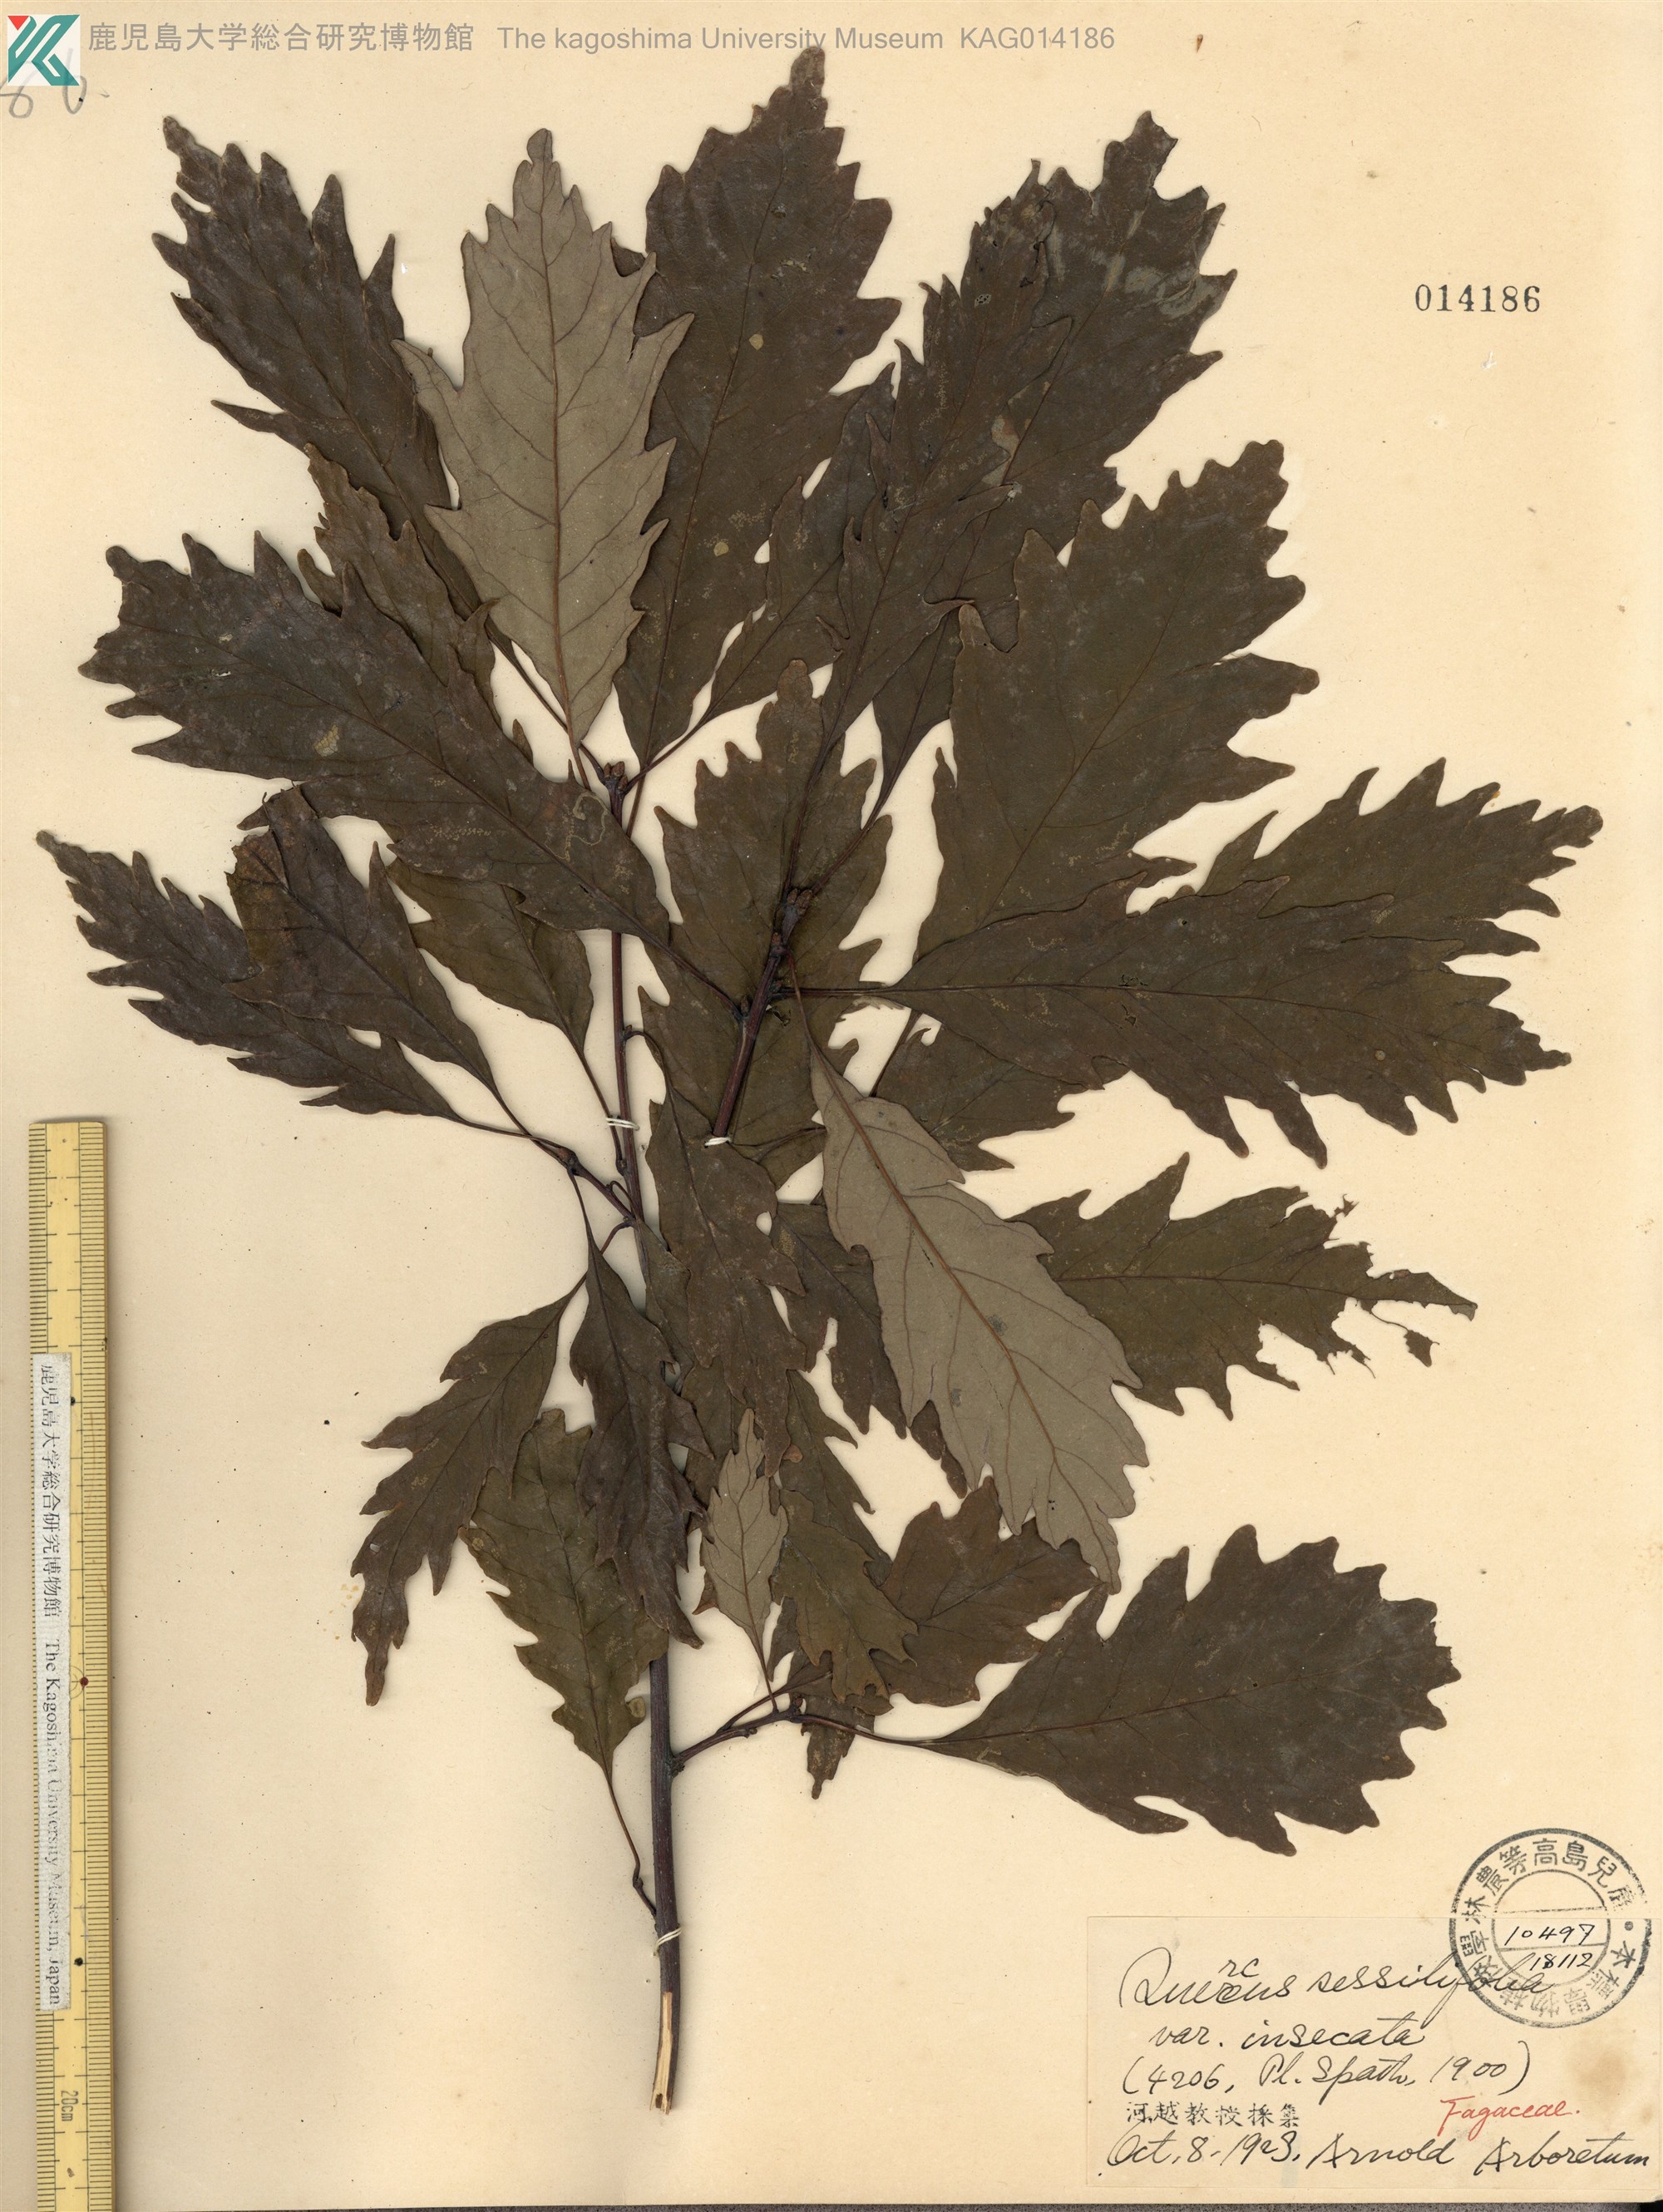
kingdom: Plantae
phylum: Tracheophyta
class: Magnoliopsida
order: Fagales
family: Fagaceae
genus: Quercus
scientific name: Quercus petraea
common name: Sessile oak
